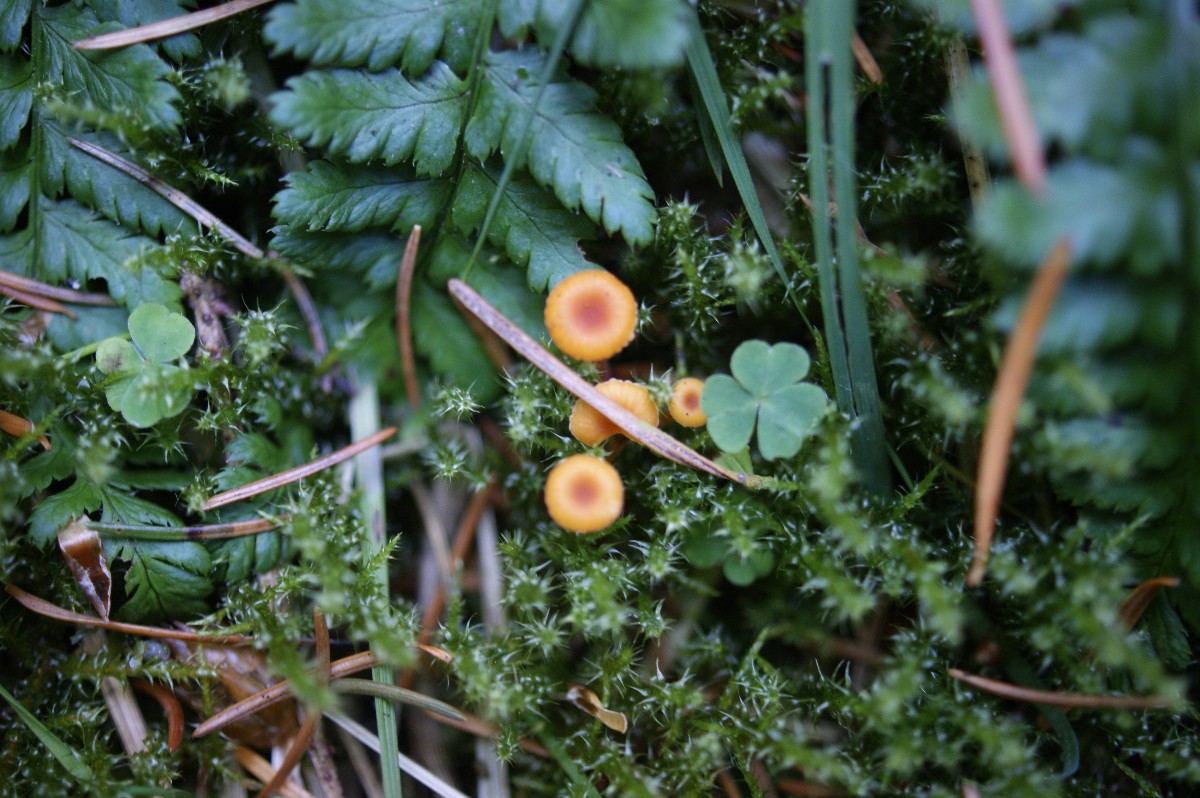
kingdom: Fungi
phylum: Basidiomycota
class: Agaricomycetes
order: Hymenochaetales
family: Rickenellaceae
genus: Rickenella
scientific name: Rickenella fibula
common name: orange mosnavlehat
